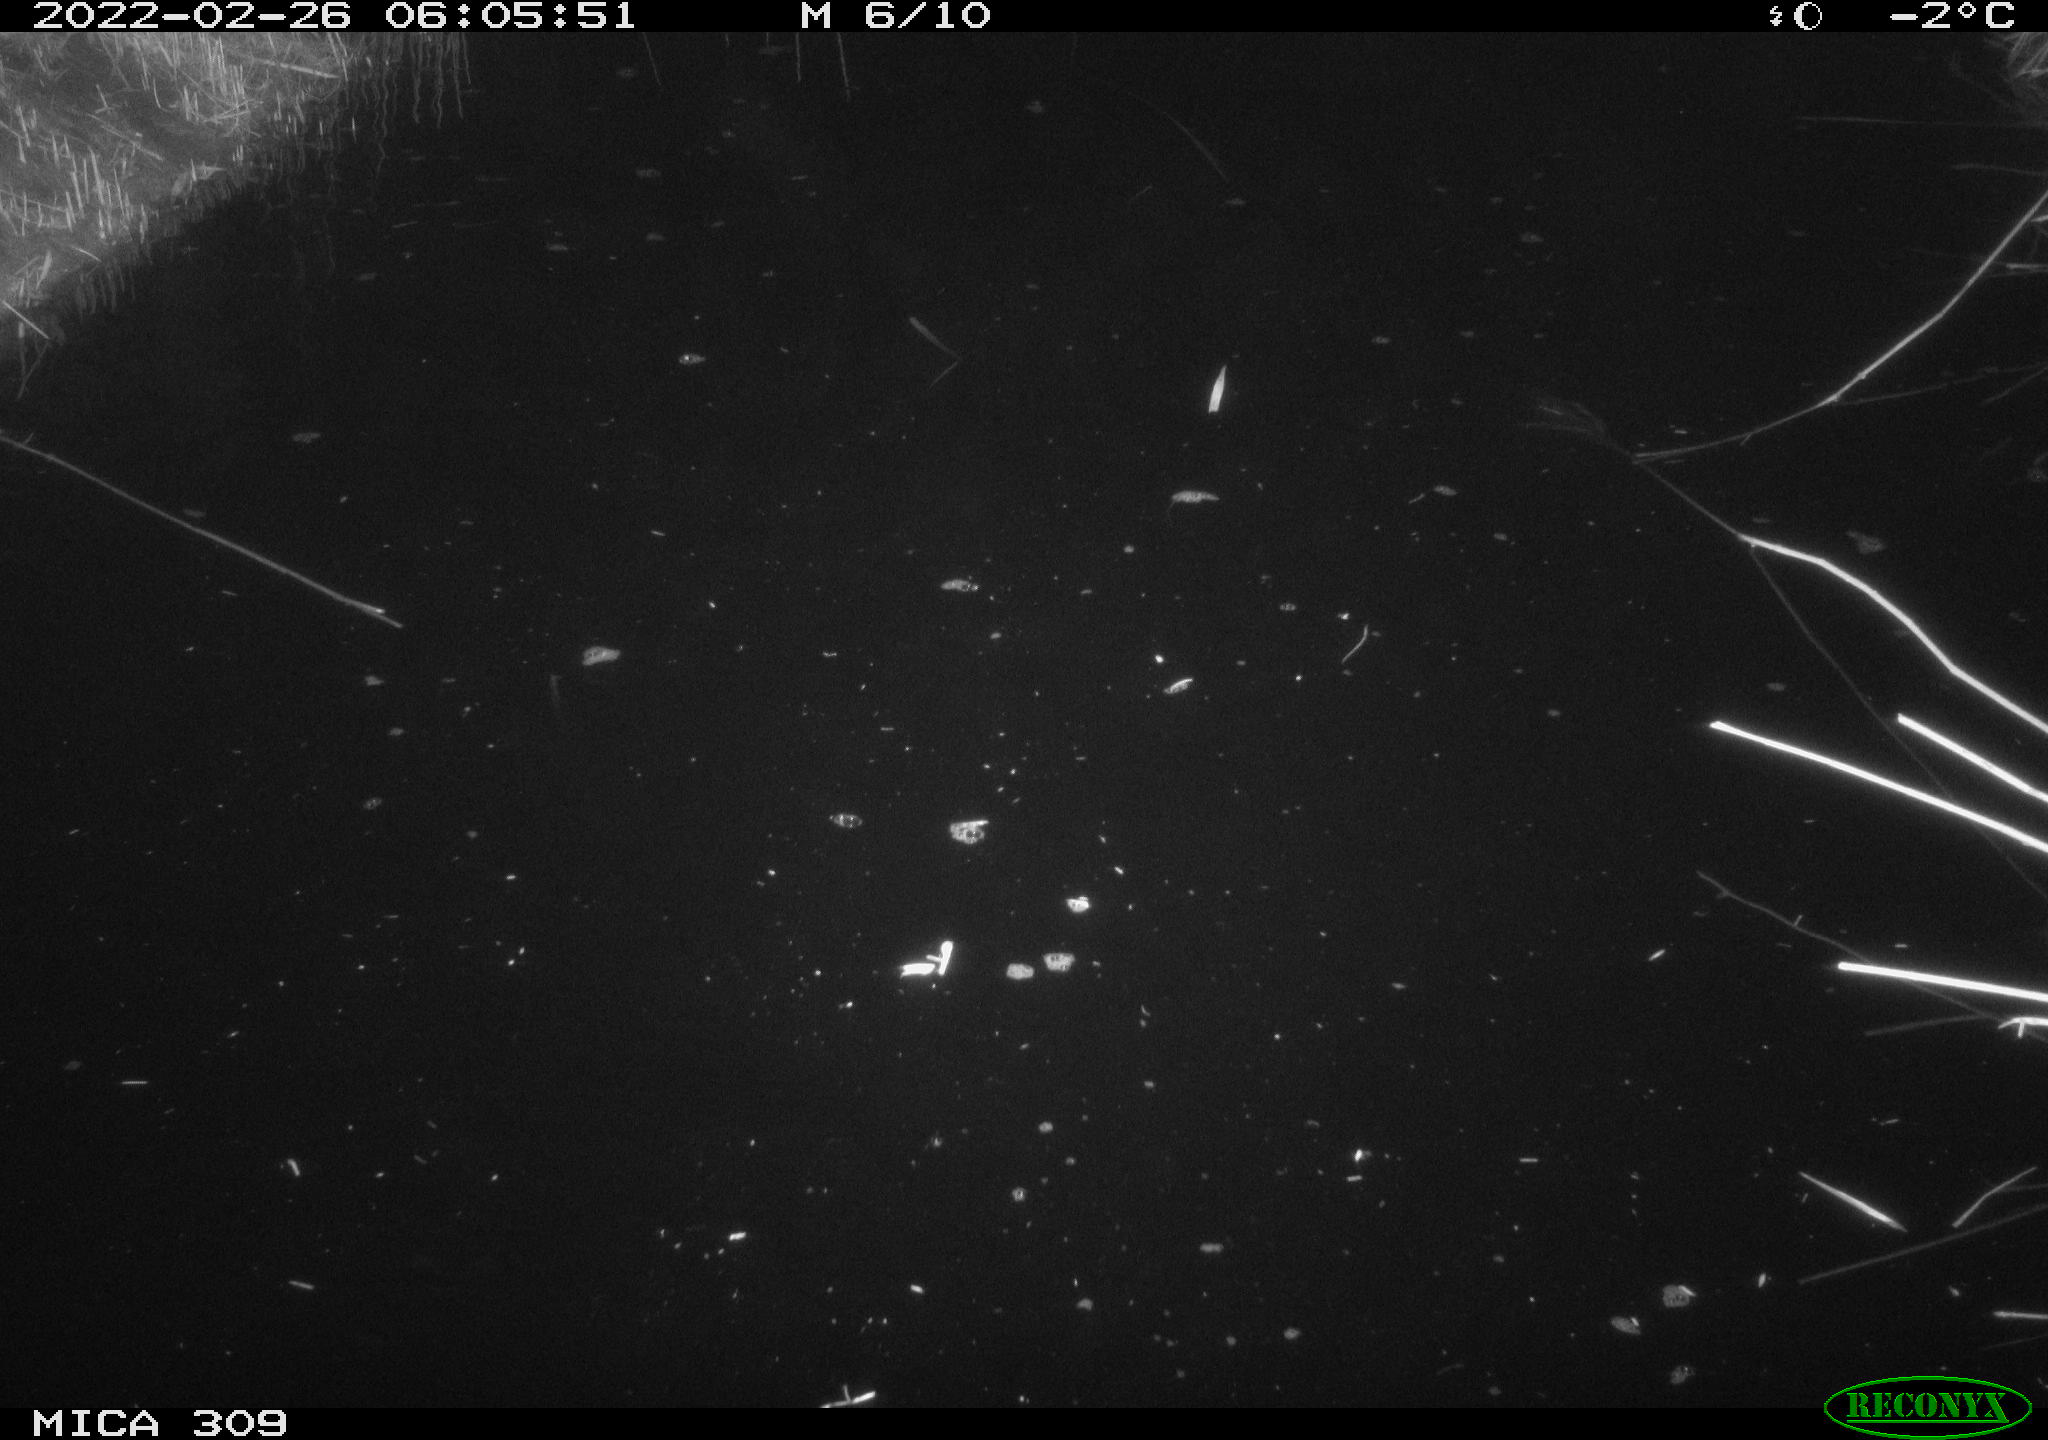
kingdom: Animalia
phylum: Chordata
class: Mammalia
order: Rodentia
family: Cricetidae
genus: Ondatra
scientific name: Ondatra zibethicus
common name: Muskrat
